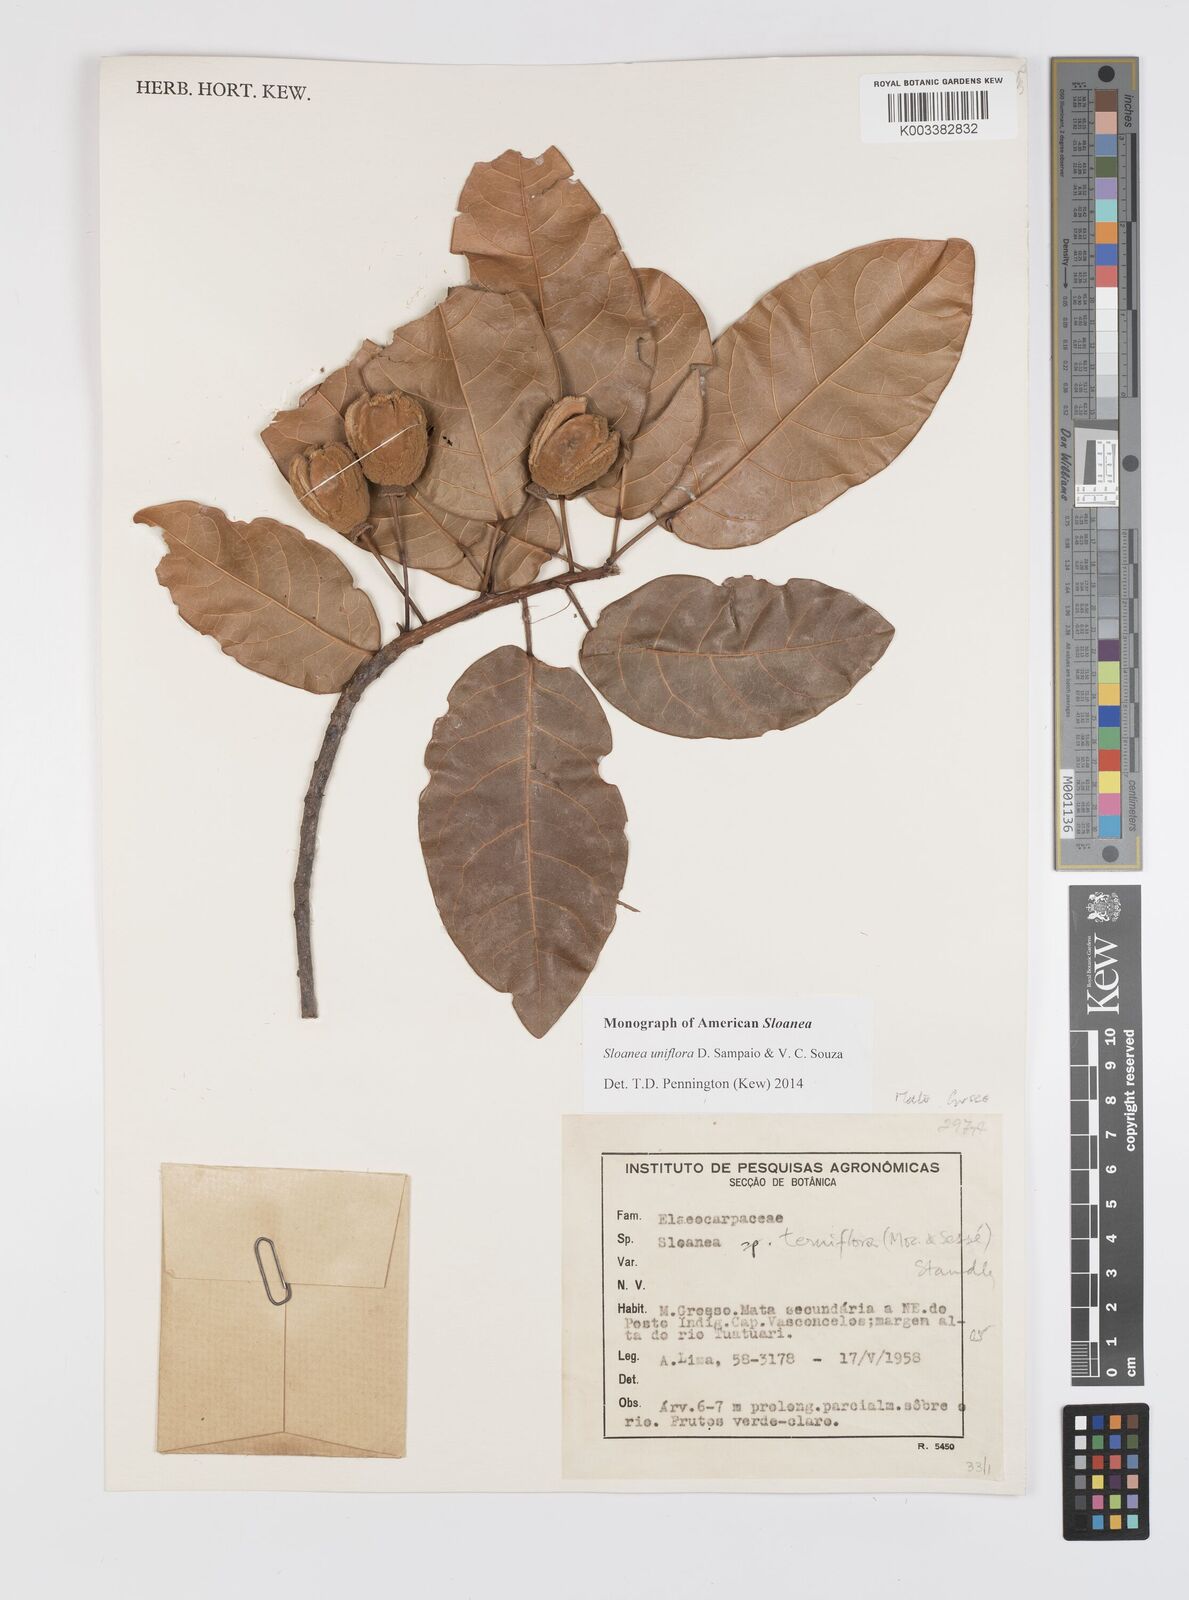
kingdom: Plantae
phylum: Tracheophyta
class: Magnoliopsida
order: Oxalidales
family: Elaeocarpaceae
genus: Sloanea
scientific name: Sloanea uniflora
